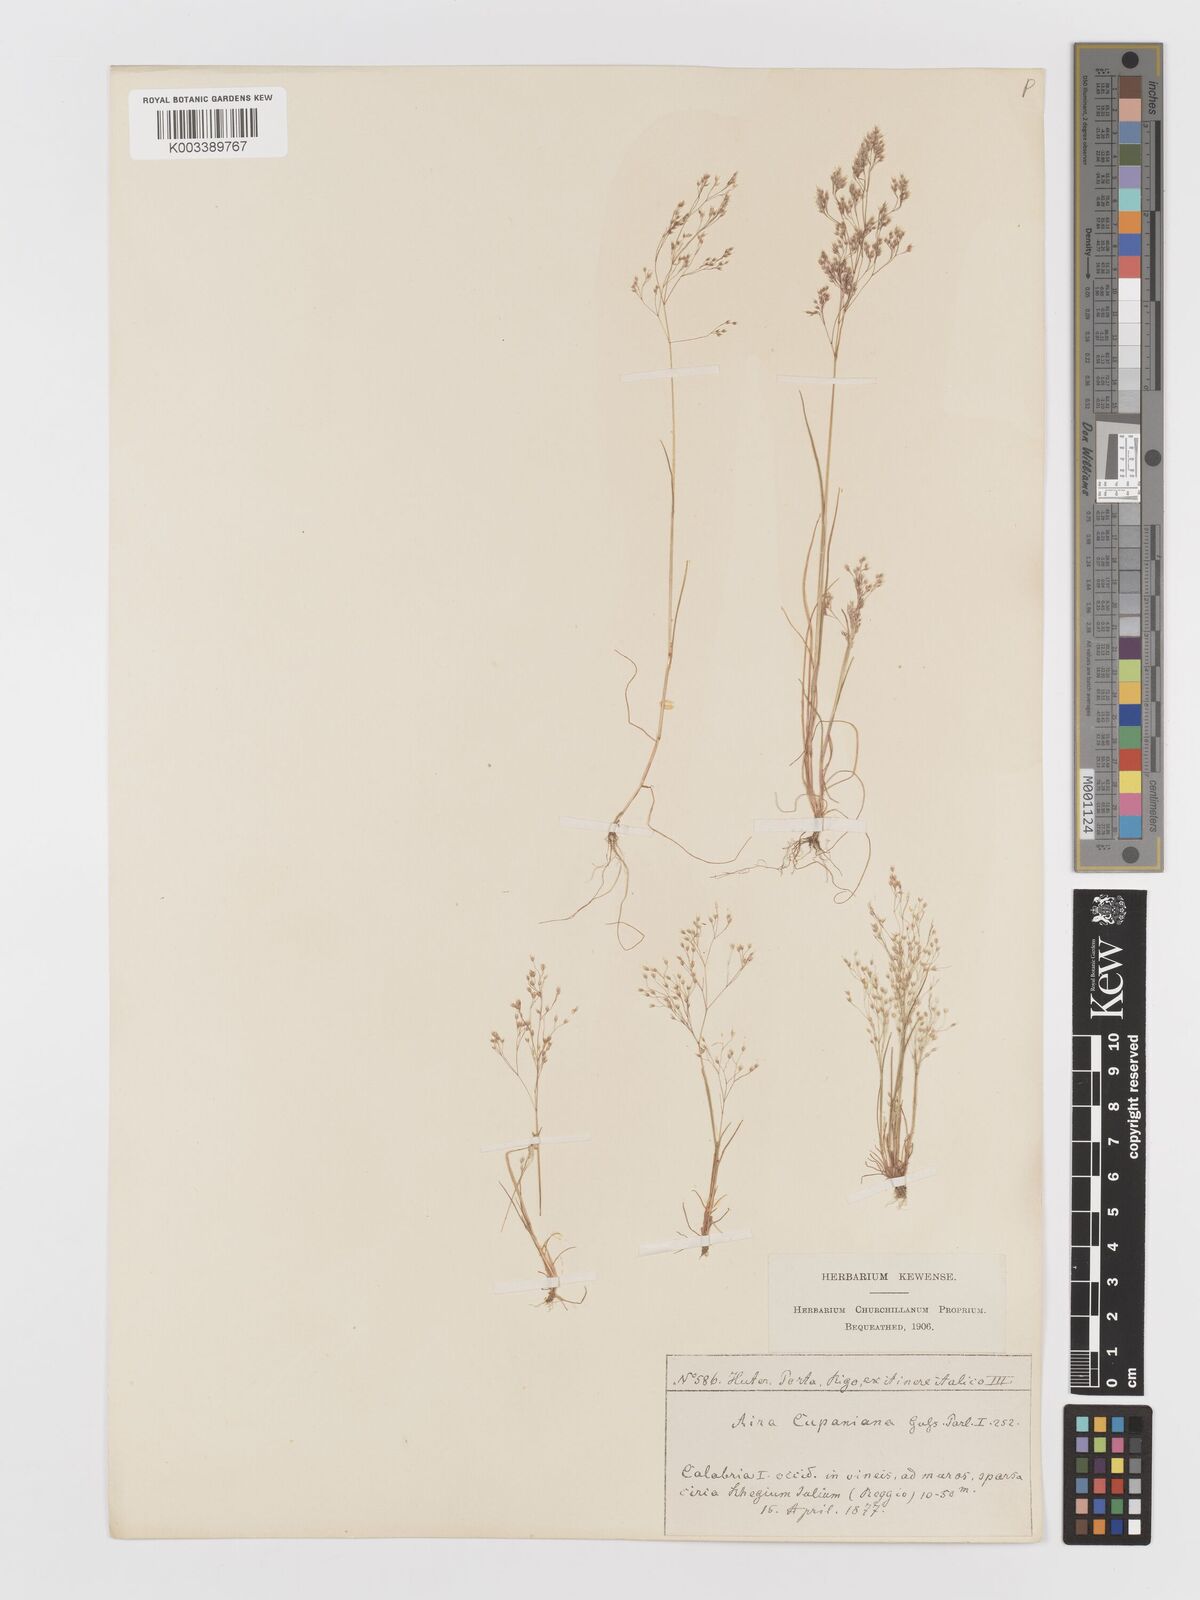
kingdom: Plantae
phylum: Tracheophyta
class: Liliopsida
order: Poales
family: Poaceae
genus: Aira
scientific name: Aira cupaniana
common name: Silver hairgrass
